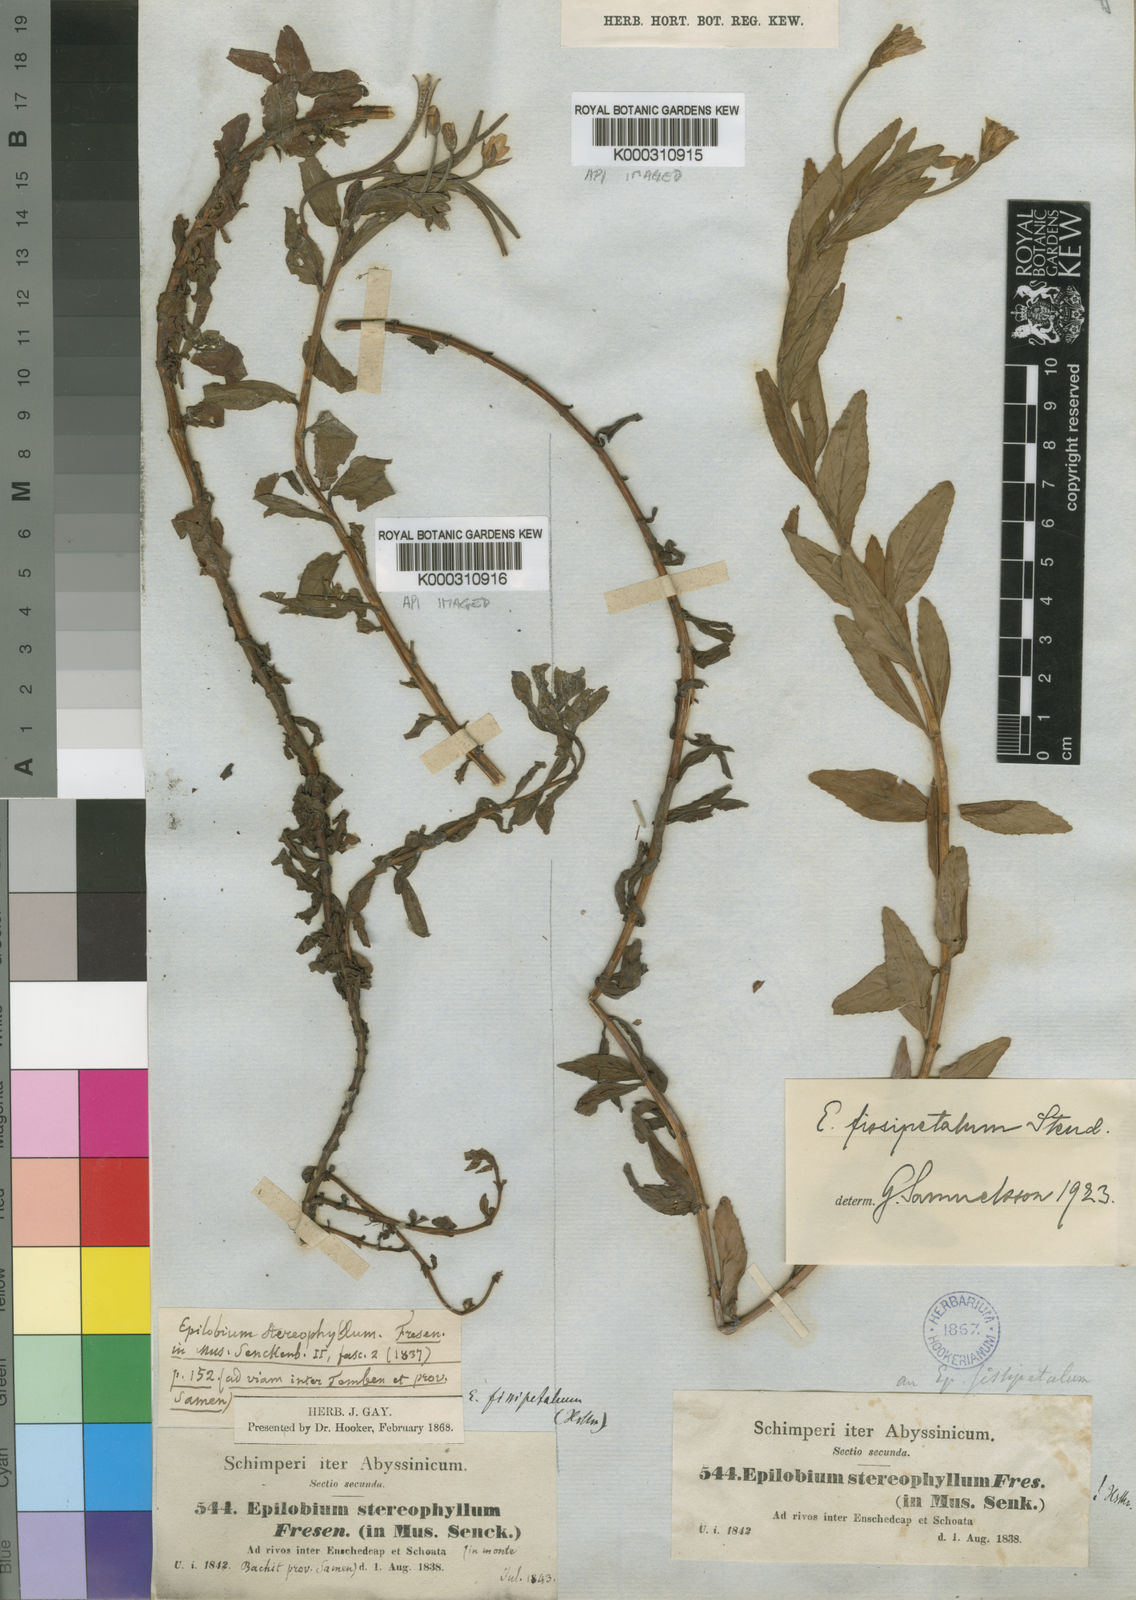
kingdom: Plantae
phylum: Tracheophyta
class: Magnoliopsida
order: Myrtales
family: Onagraceae
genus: Epilobium
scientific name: Epilobium stereophyllum
